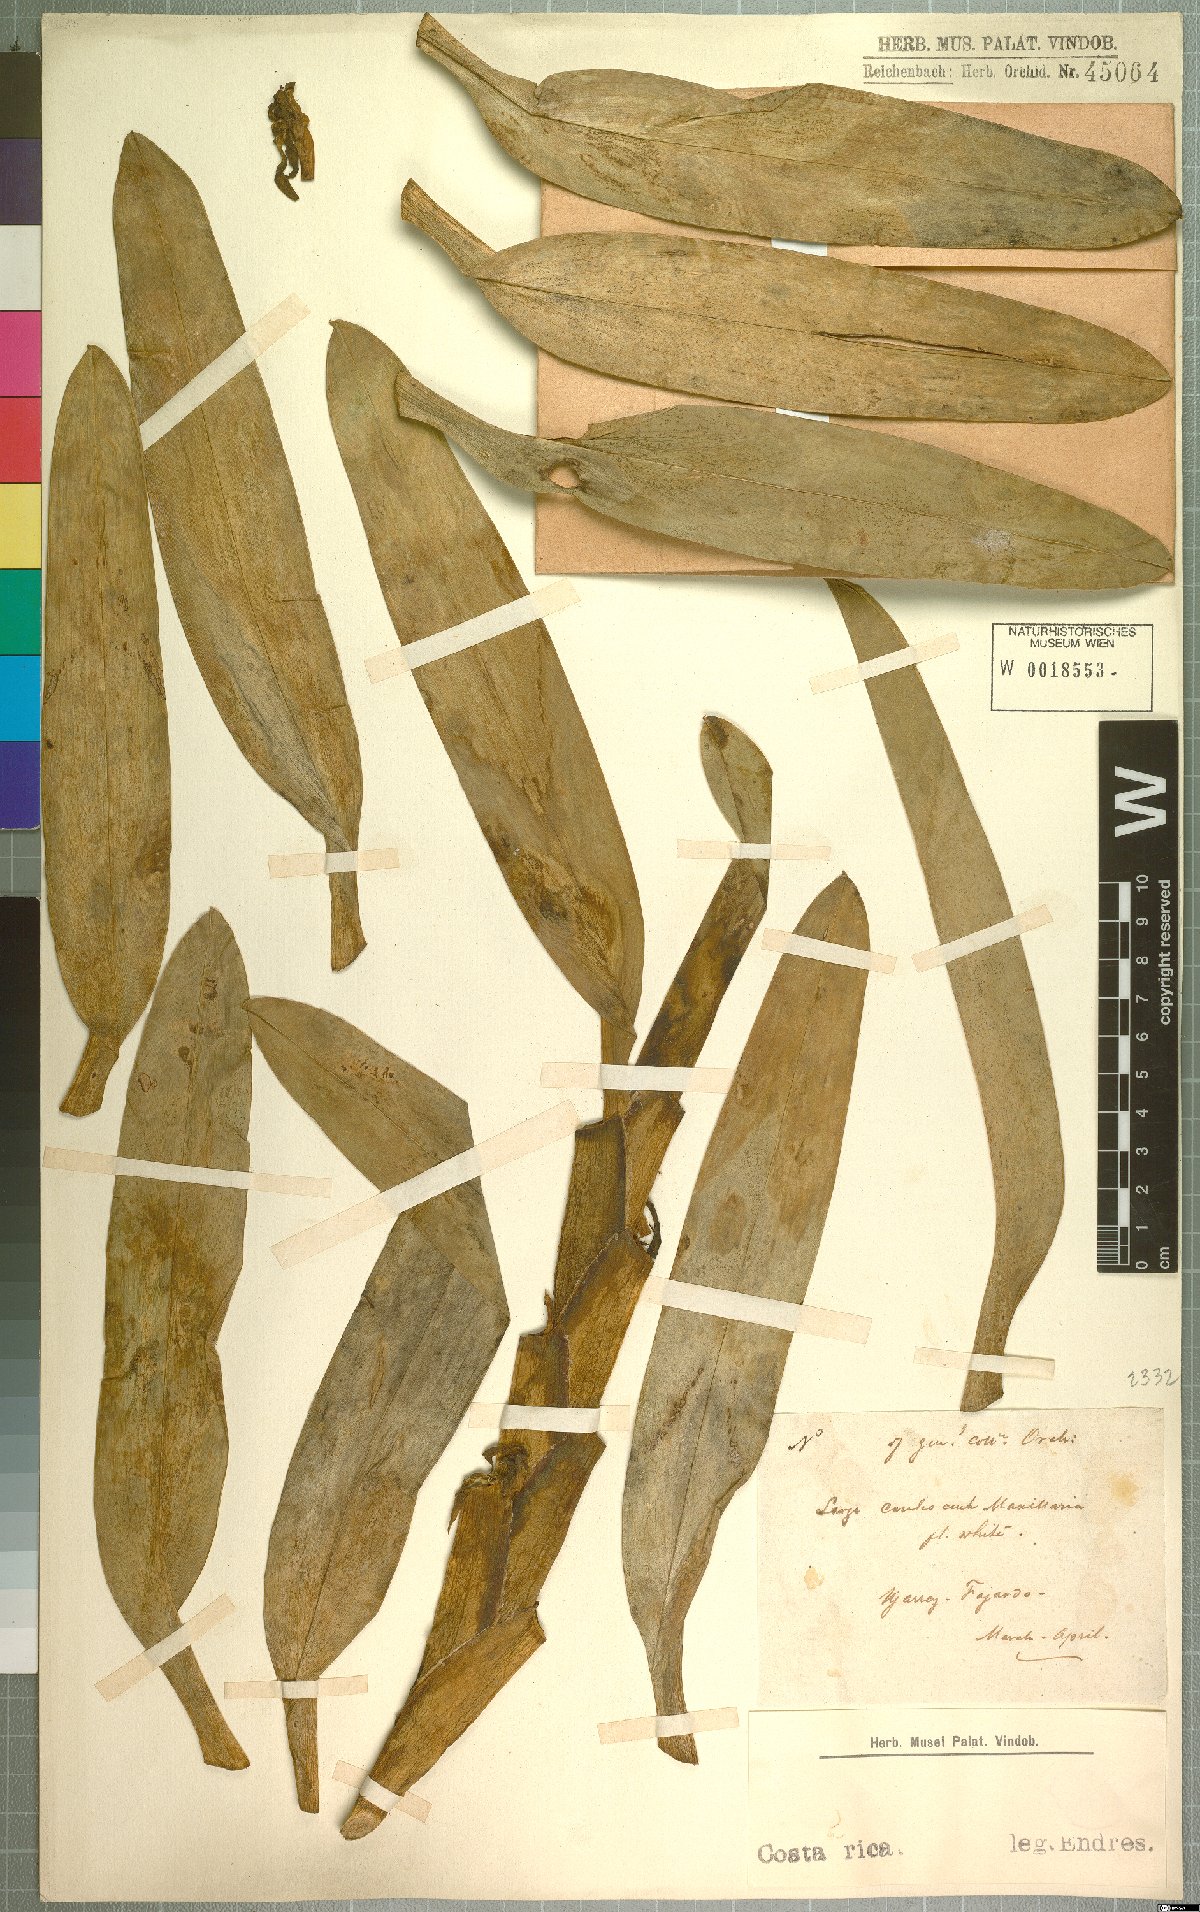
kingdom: Plantae
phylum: Tracheophyta
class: Liliopsida
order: Asparagales
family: Orchidaceae
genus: Maxillaria
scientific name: Maxillaria
